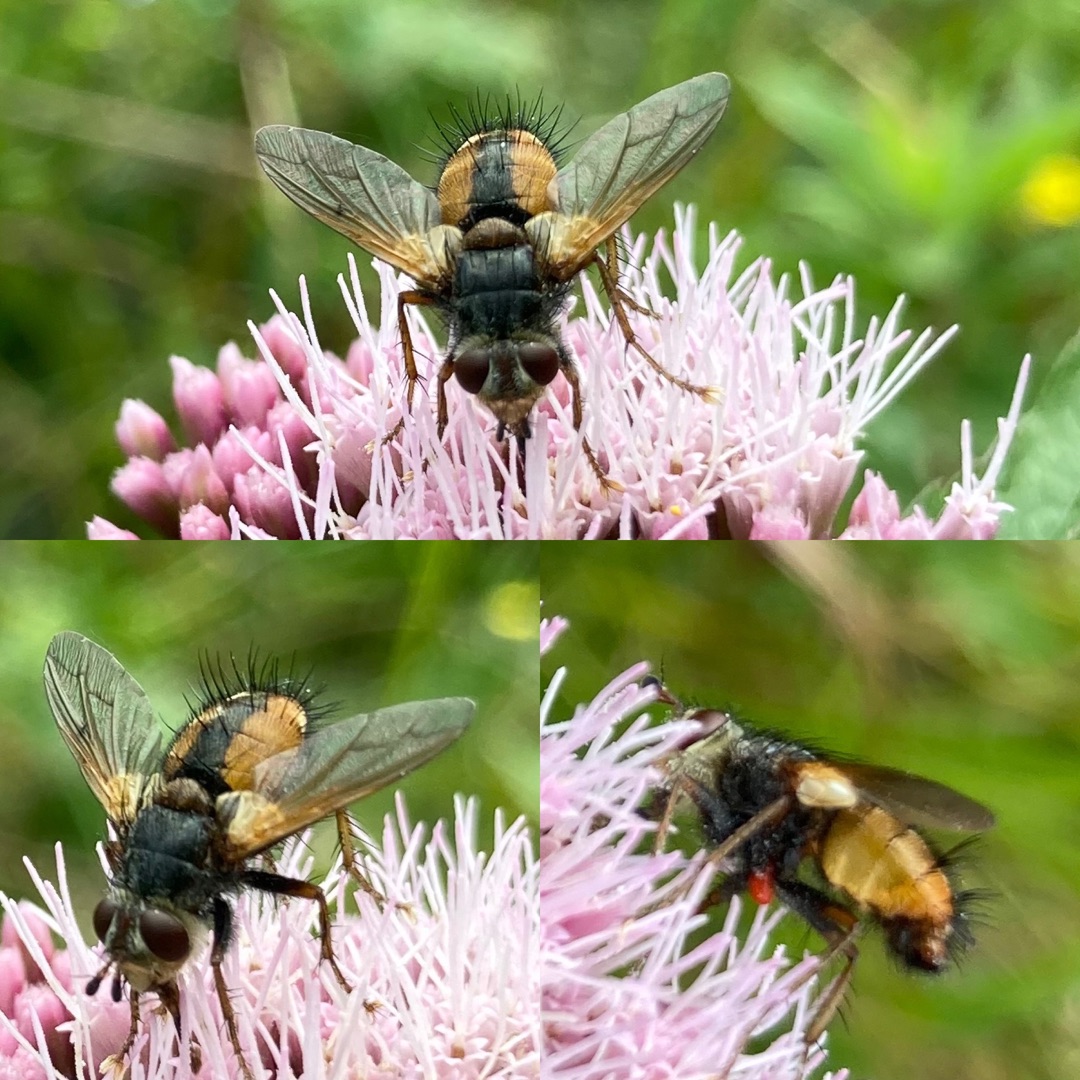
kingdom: Animalia
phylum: Arthropoda
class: Insecta
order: Diptera
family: Tachinidae
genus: Tachina
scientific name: Tachina fera
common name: Mellemfluen oskar
